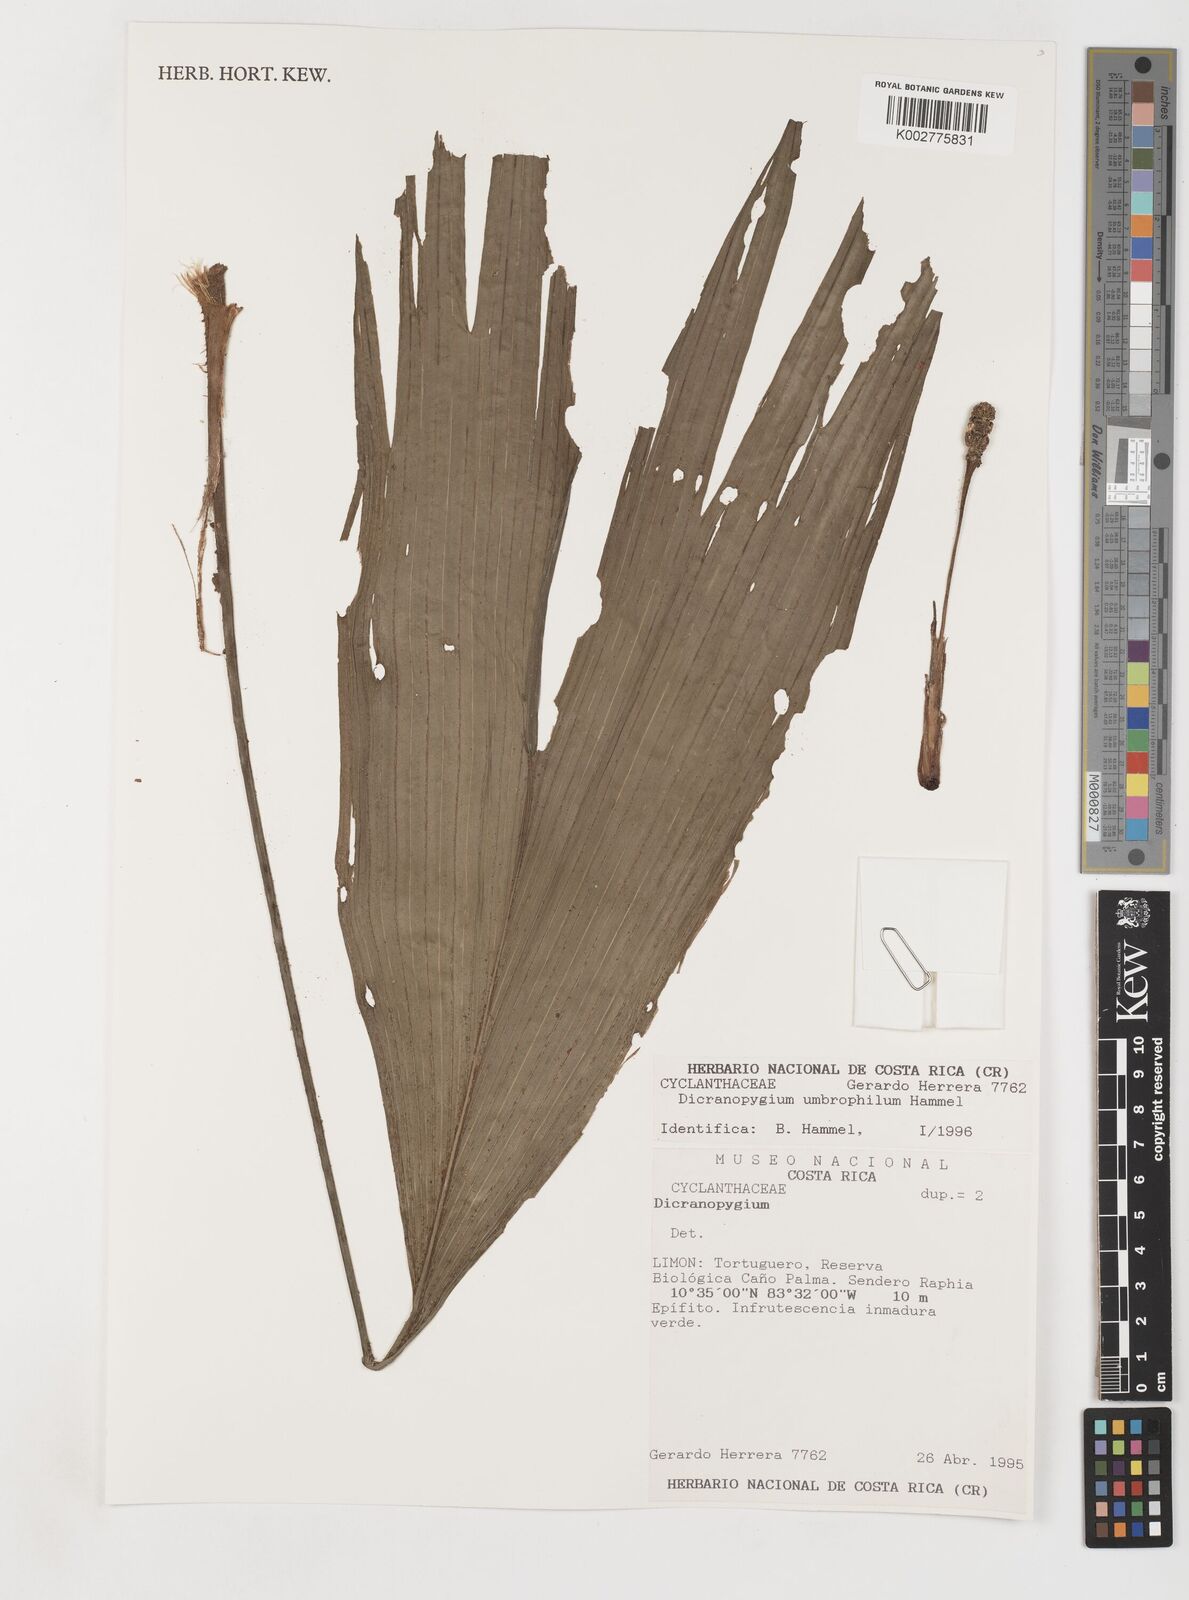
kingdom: Plantae
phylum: Tracheophyta
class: Liliopsida
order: Pandanales
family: Cyclanthaceae
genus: Dicranopygium
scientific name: Dicranopygium umbrophilum
